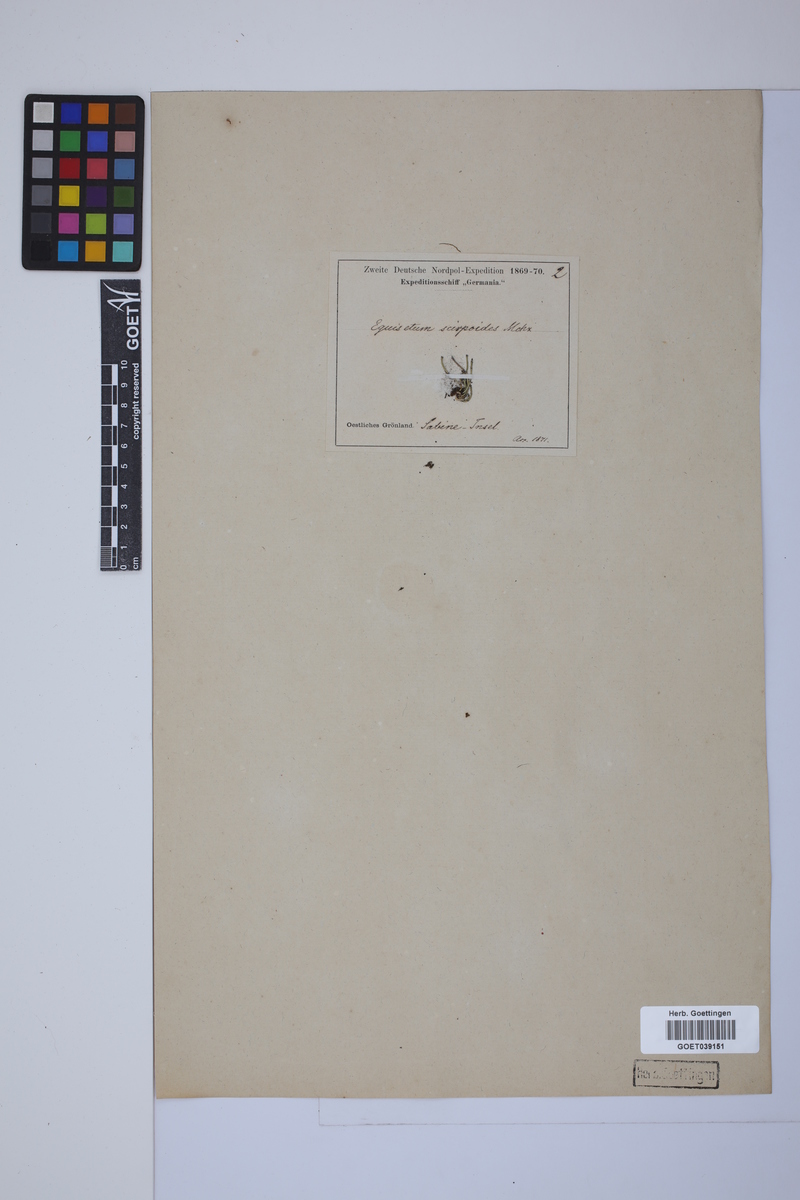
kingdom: Plantae
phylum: Tracheophyta
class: Polypodiopsida
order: Equisetales
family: Equisetaceae
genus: Equisetum
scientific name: Equisetum scirpoides
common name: Delicate horsetail
